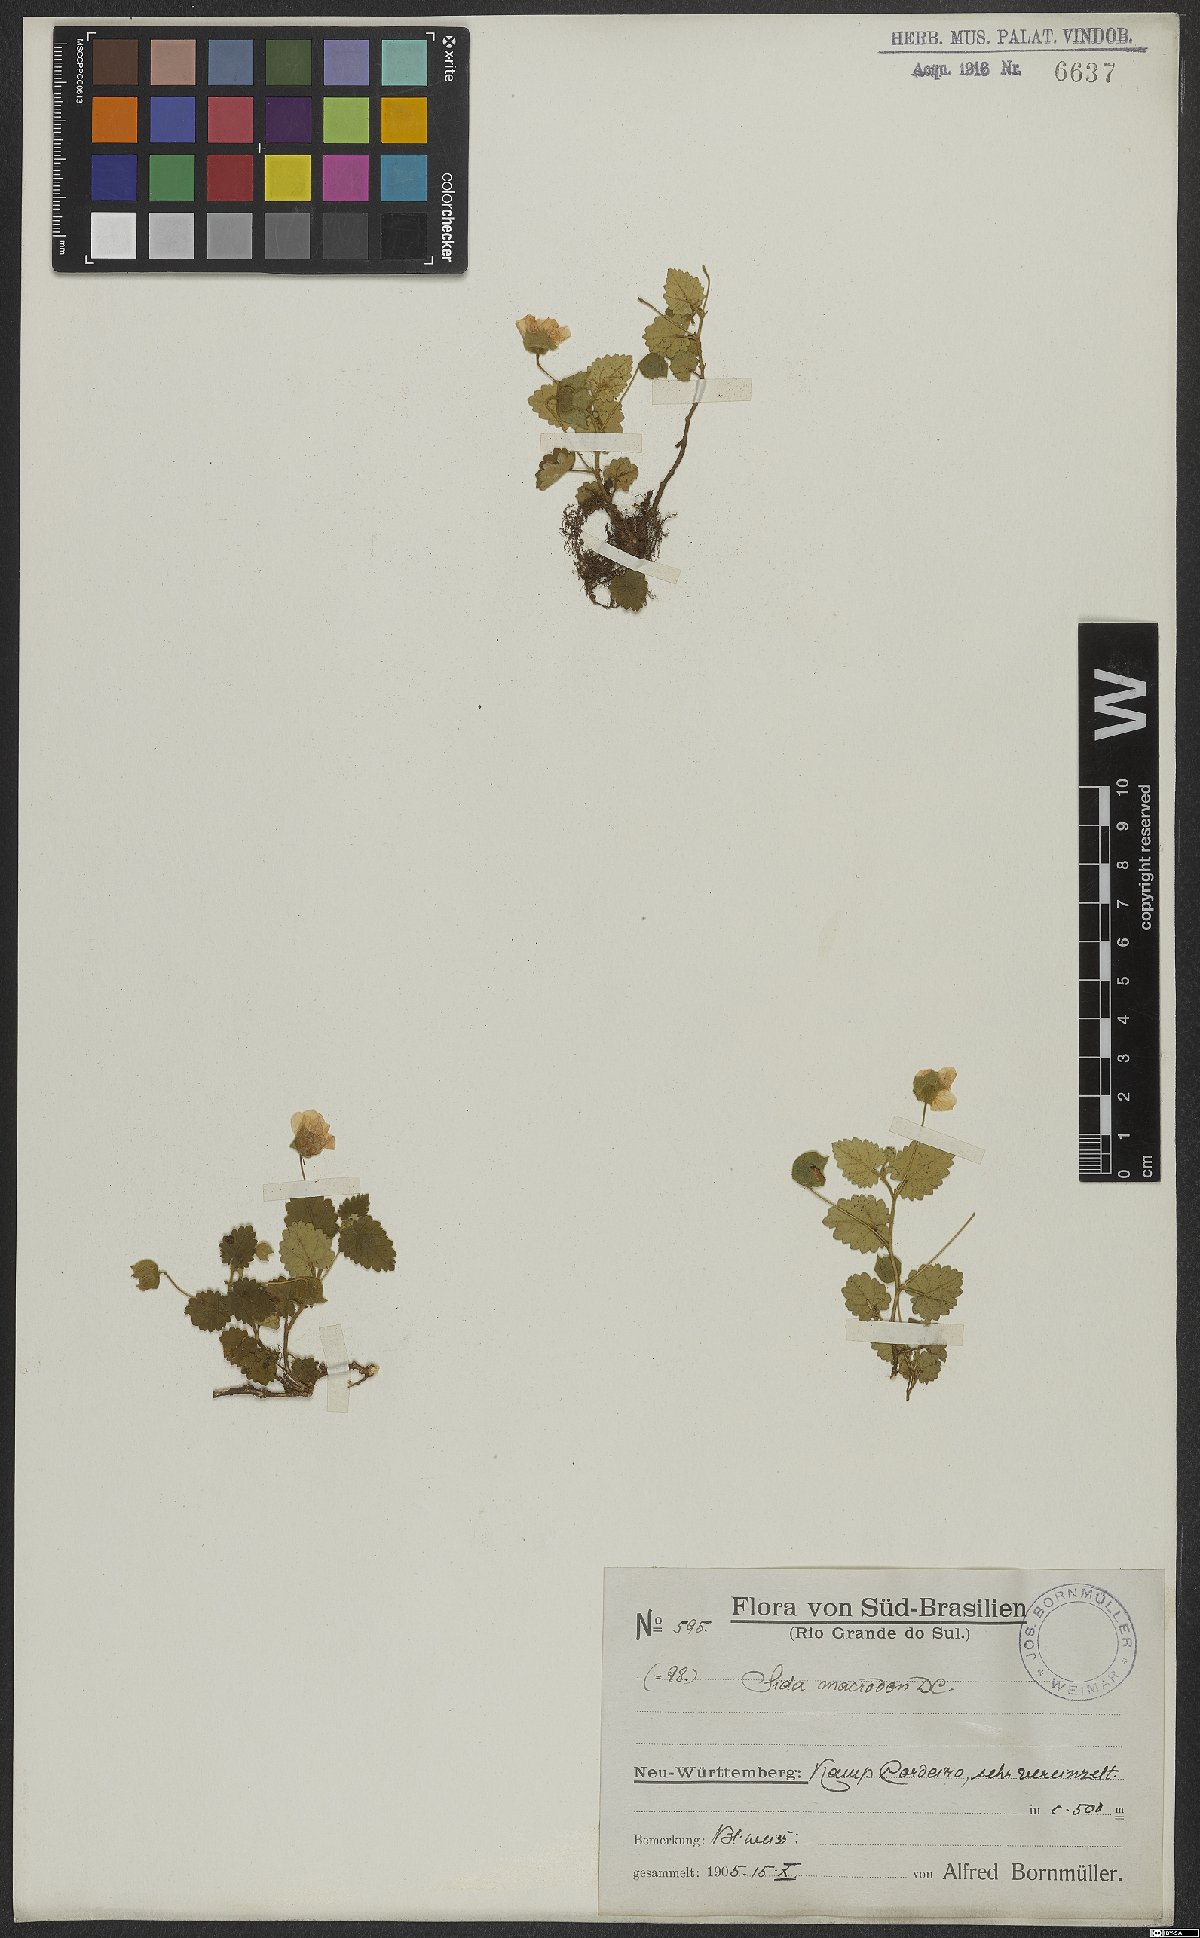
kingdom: Plantae
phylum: Tracheophyta
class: Magnoliopsida
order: Malvales
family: Malvaceae
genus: Krapovickasia
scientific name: Krapovickasia macrodon
